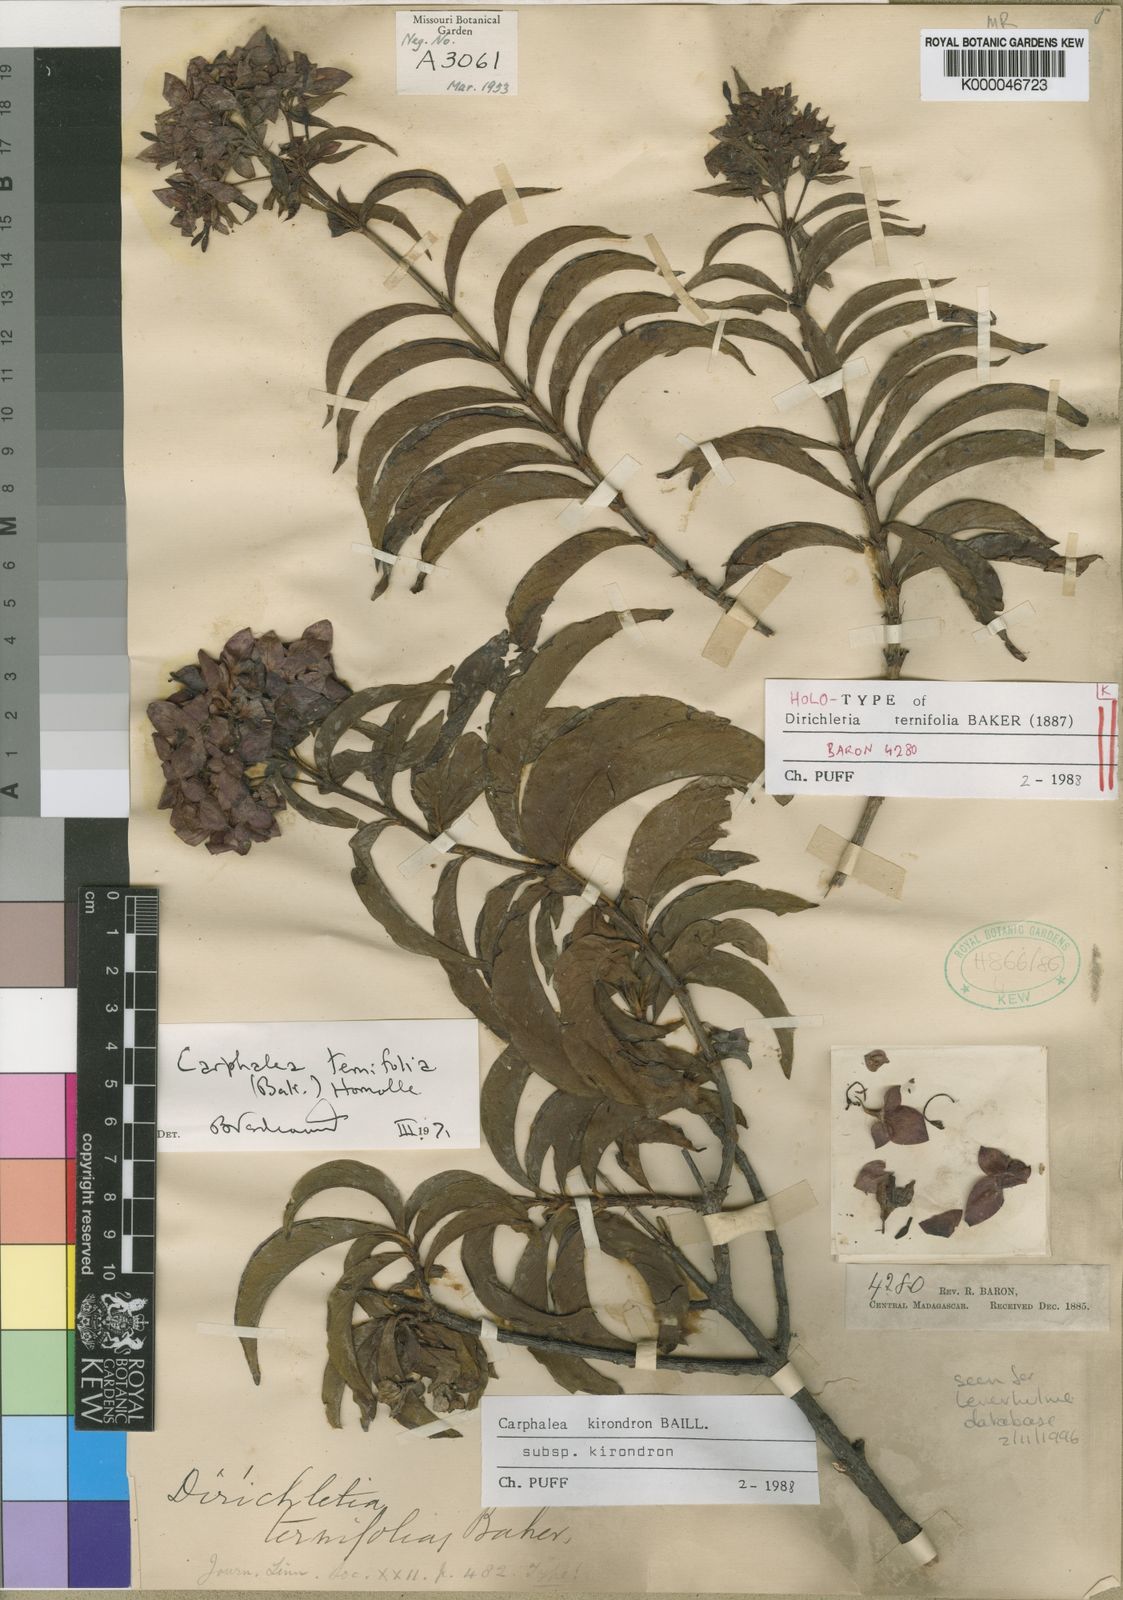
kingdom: Plantae
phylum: Tracheophyta
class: Magnoliopsida
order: Gentianales
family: Rubiaceae
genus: Paracarphalea
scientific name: Paracarphalea kirondron
